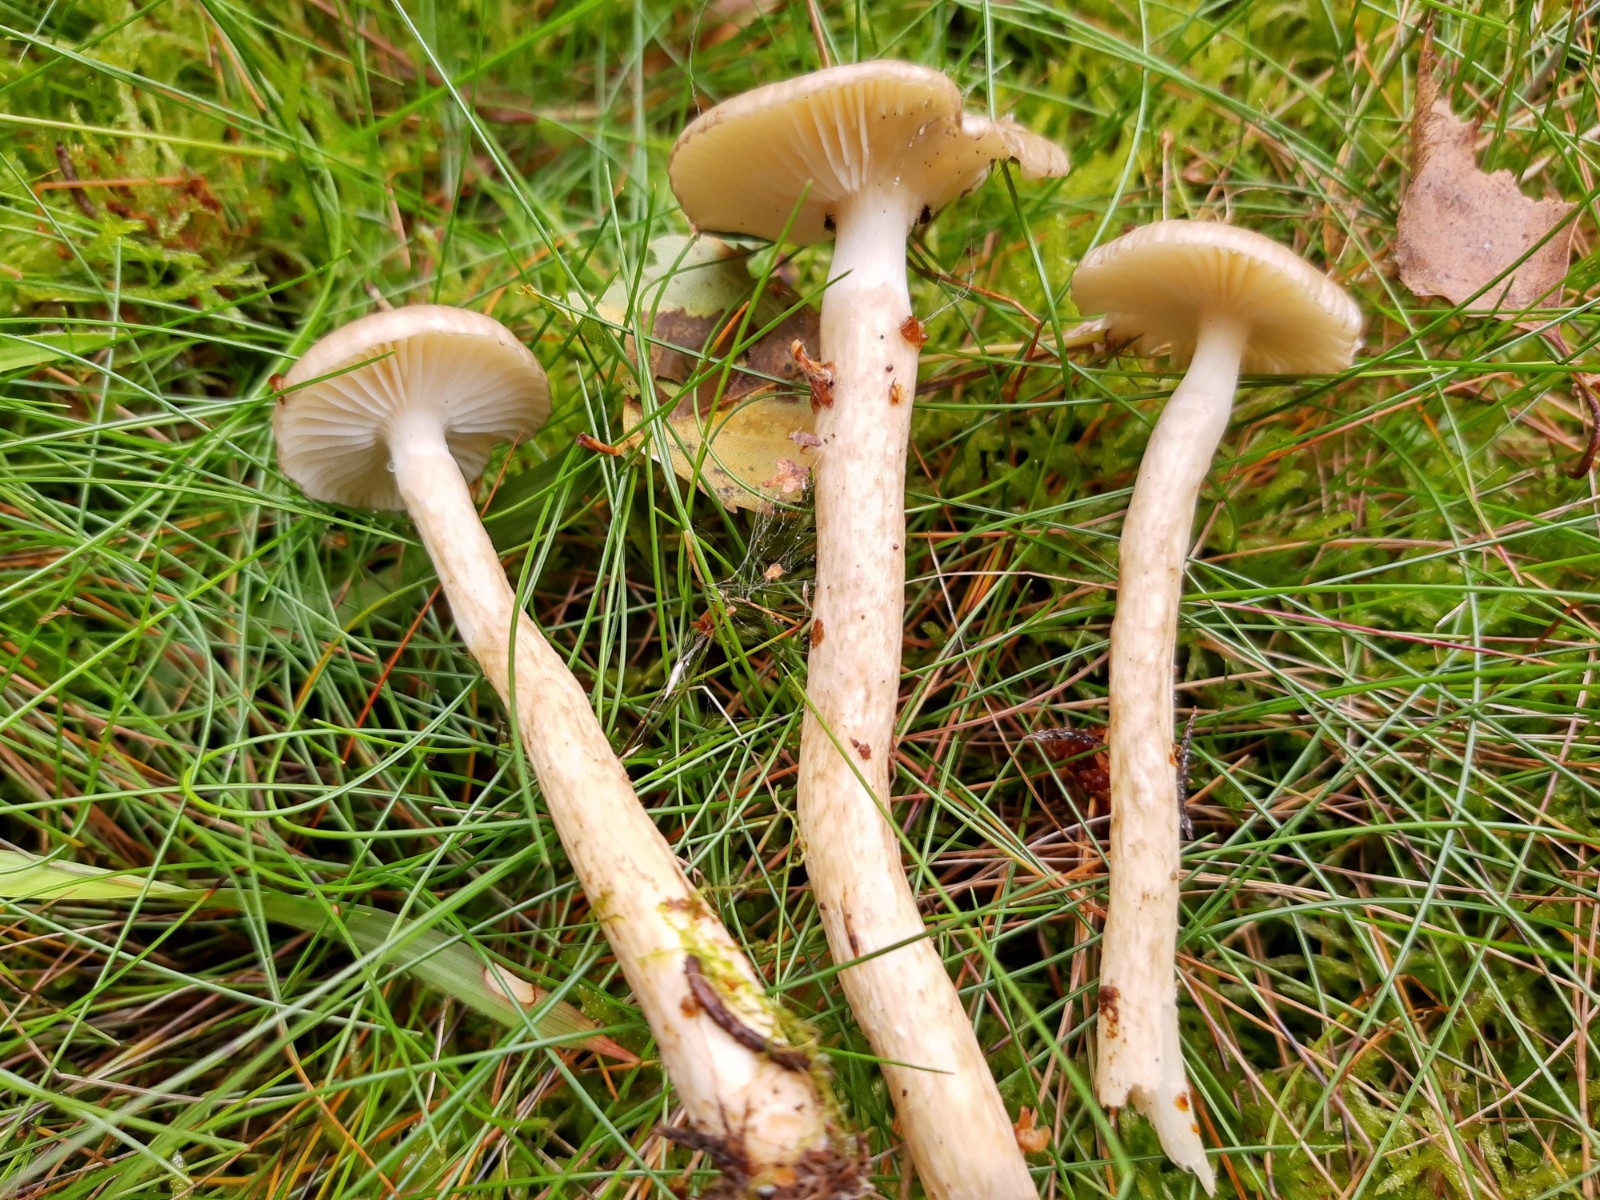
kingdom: Fungi
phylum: Basidiomycota
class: Agaricomycetes
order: Agaricales
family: Hygrophoraceae
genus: Hygrophorus
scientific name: Hygrophorus olivaceoalbus
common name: hvidbrun sneglehat
